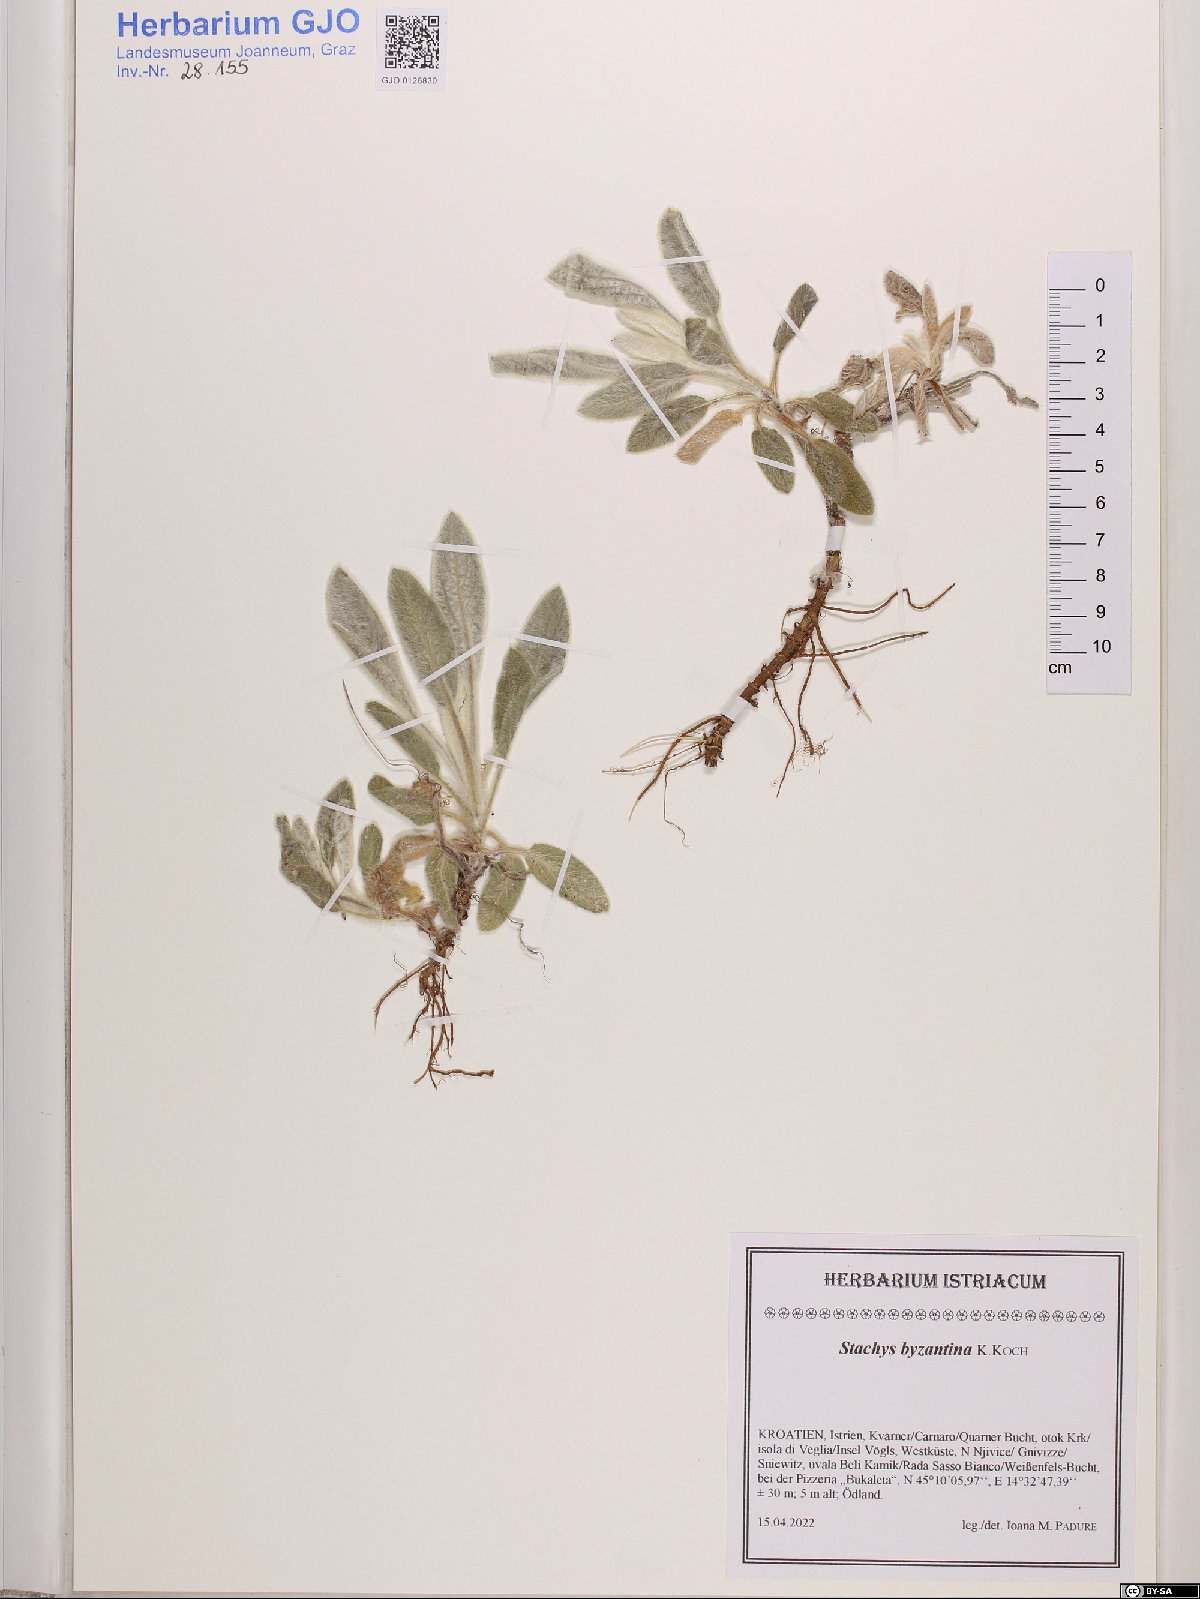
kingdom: Plantae
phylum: Tracheophyta
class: Magnoliopsida
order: Lamiales
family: Lamiaceae
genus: Stachys
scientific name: Stachys byzantina
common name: Lamb's-ear
